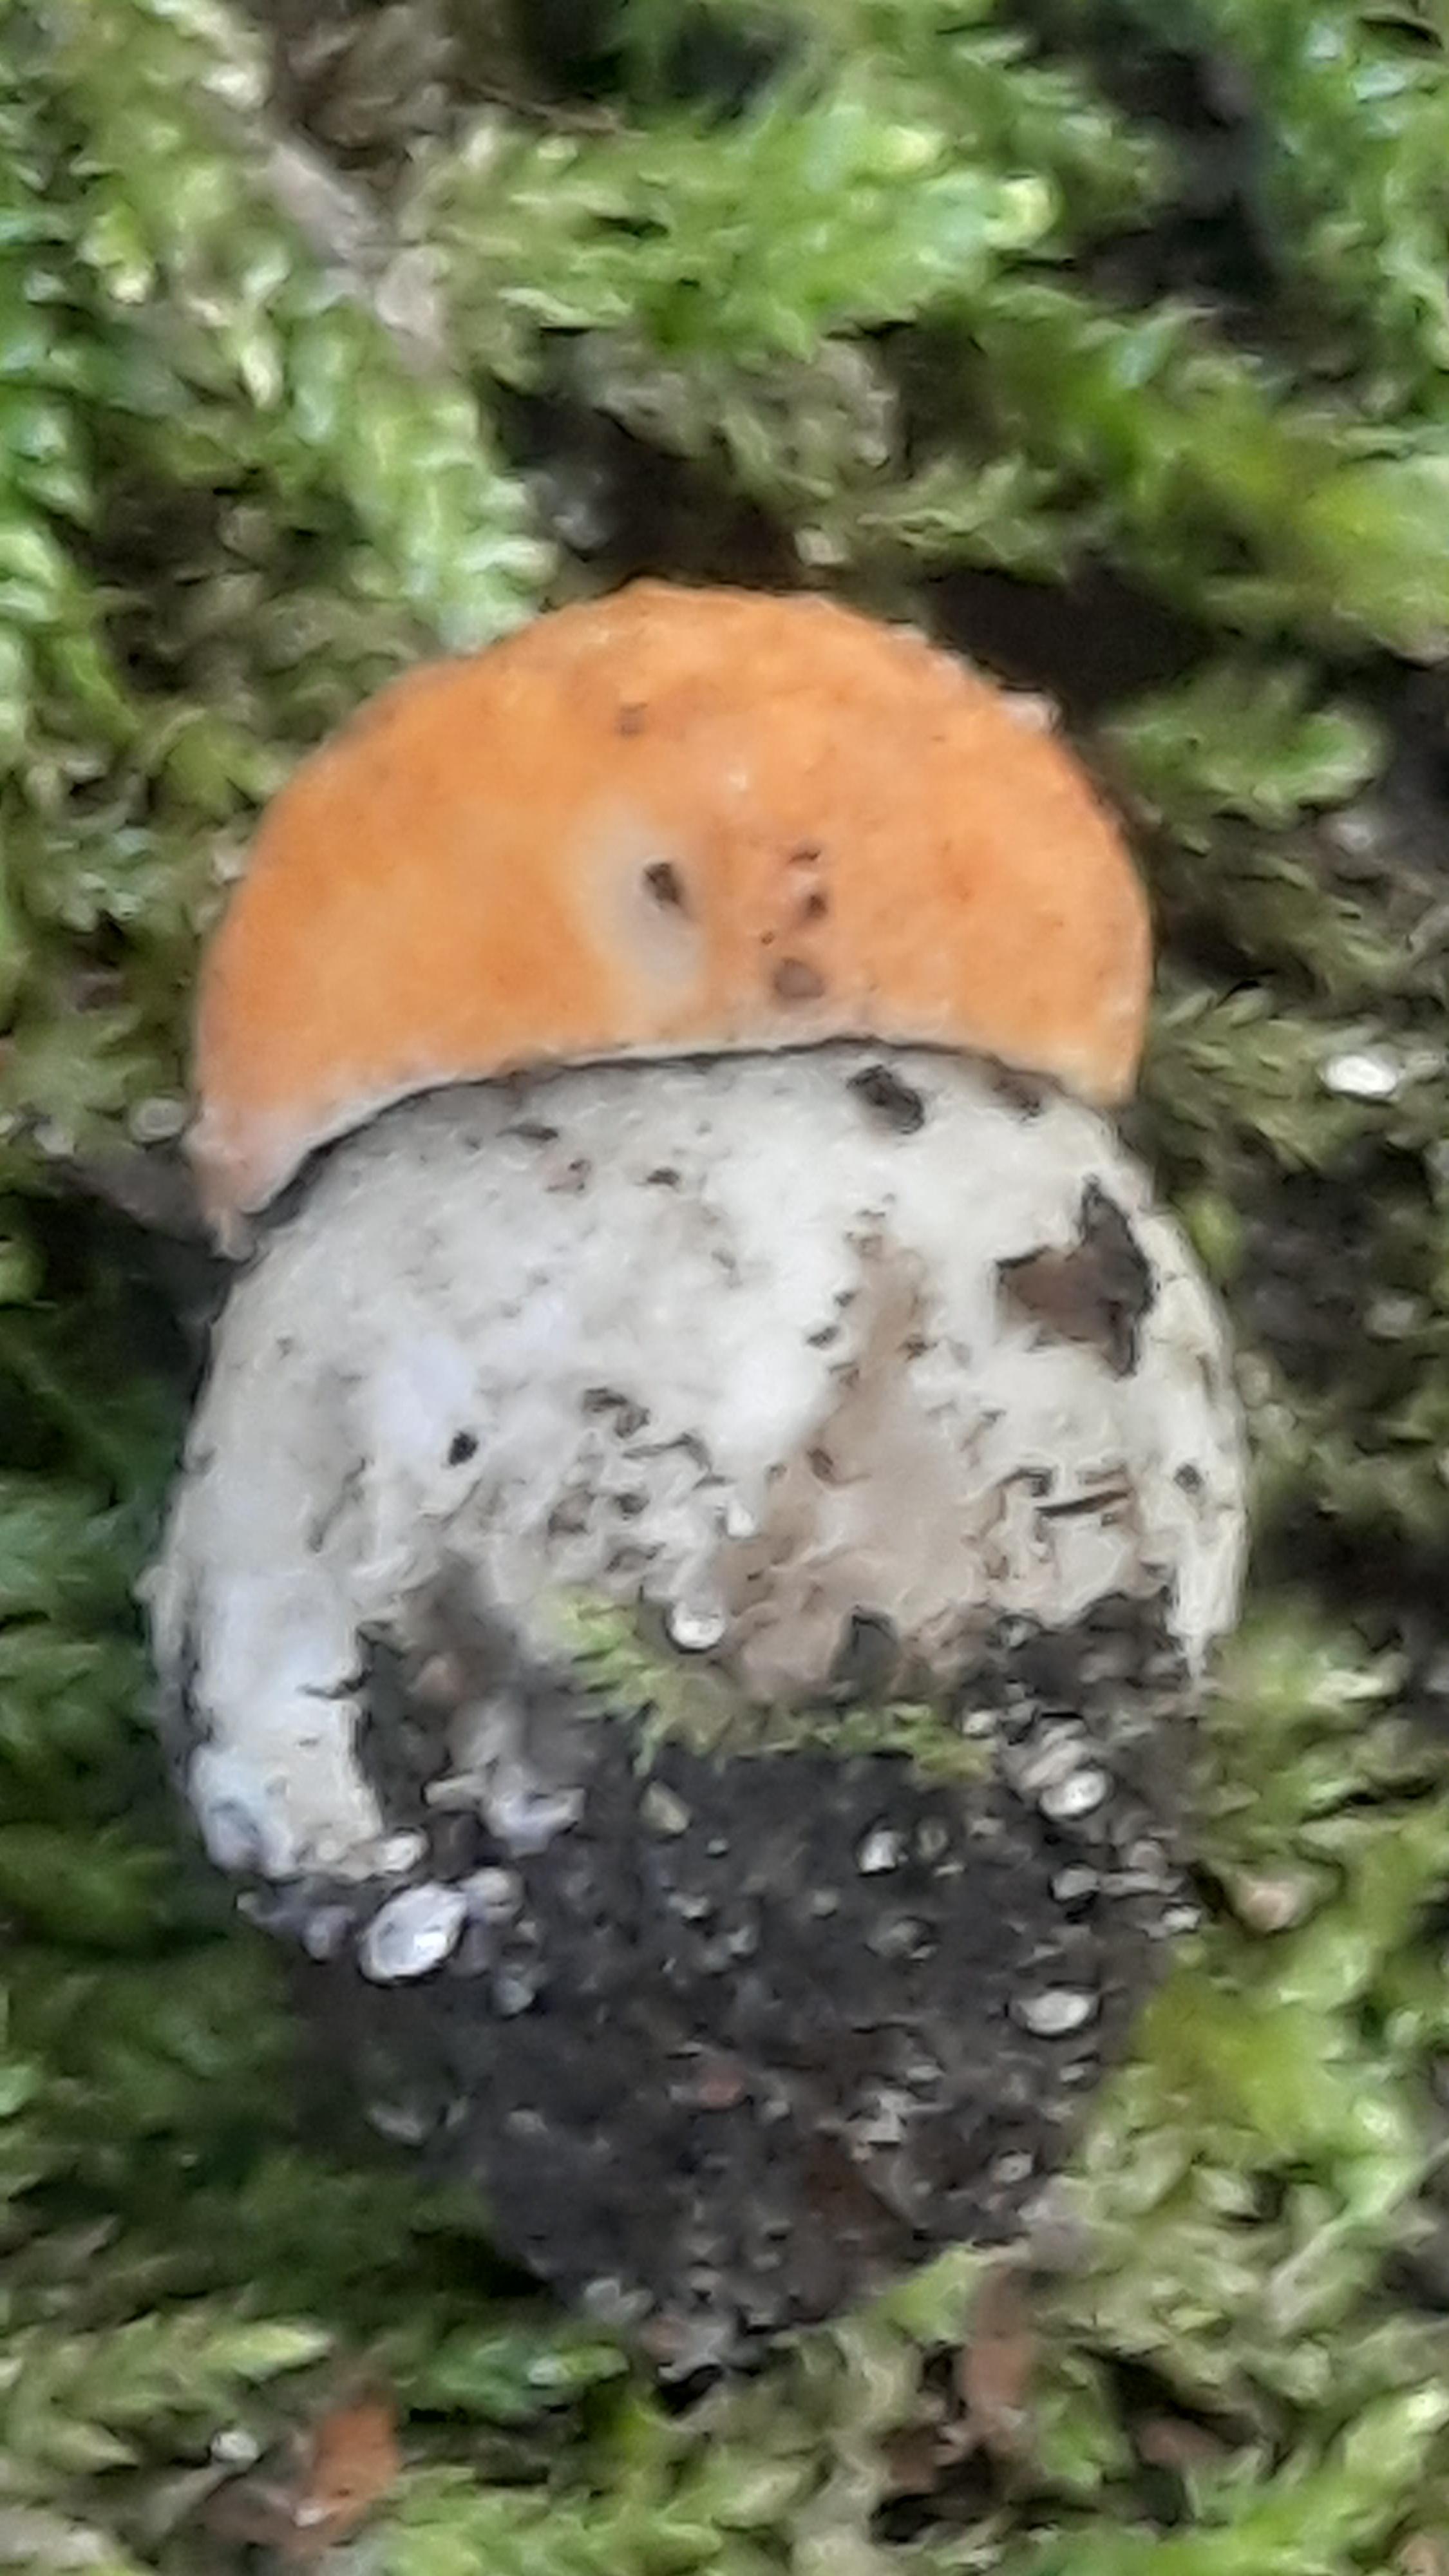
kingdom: Fungi
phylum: Basidiomycota
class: Agaricomycetes
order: Boletales
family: Boletaceae
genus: Leccinum
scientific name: Leccinum versipelle
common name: orange skælrørhat
